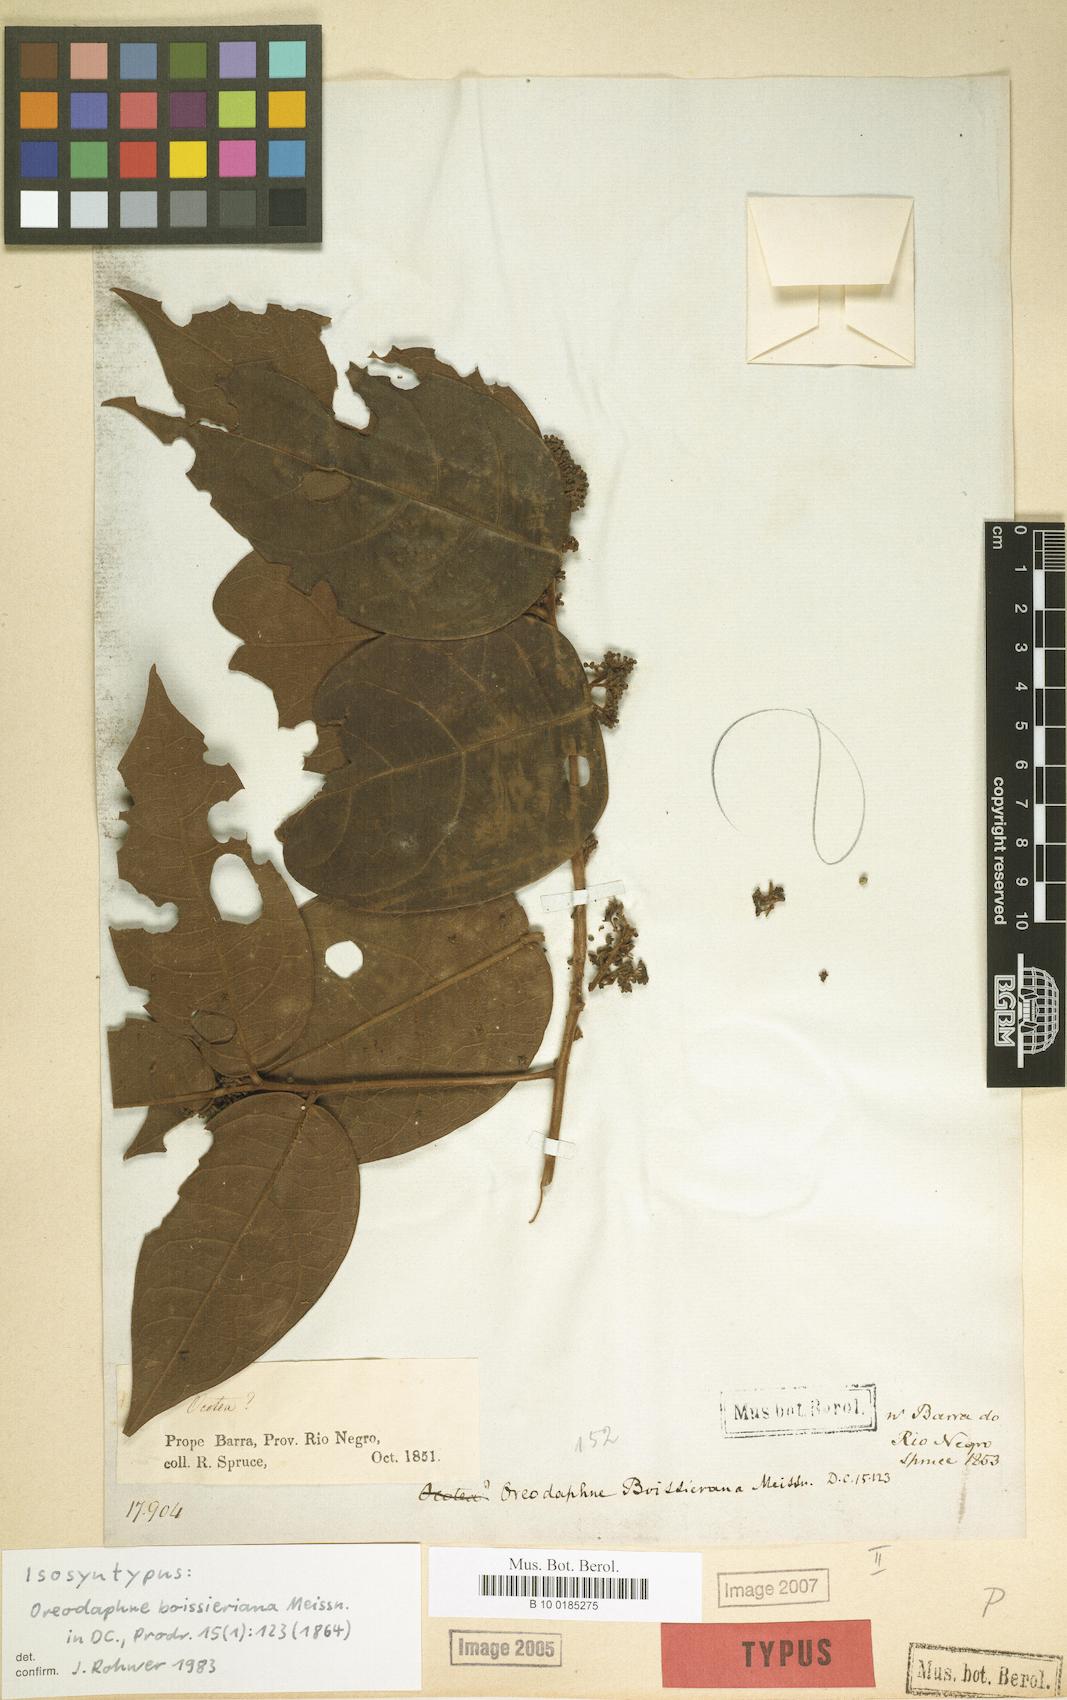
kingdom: Plantae
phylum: Tracheophyta
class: Magnoliopsida
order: Laurales
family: Lauraceae
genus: Ocotea
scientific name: Ocotea boissieriana
